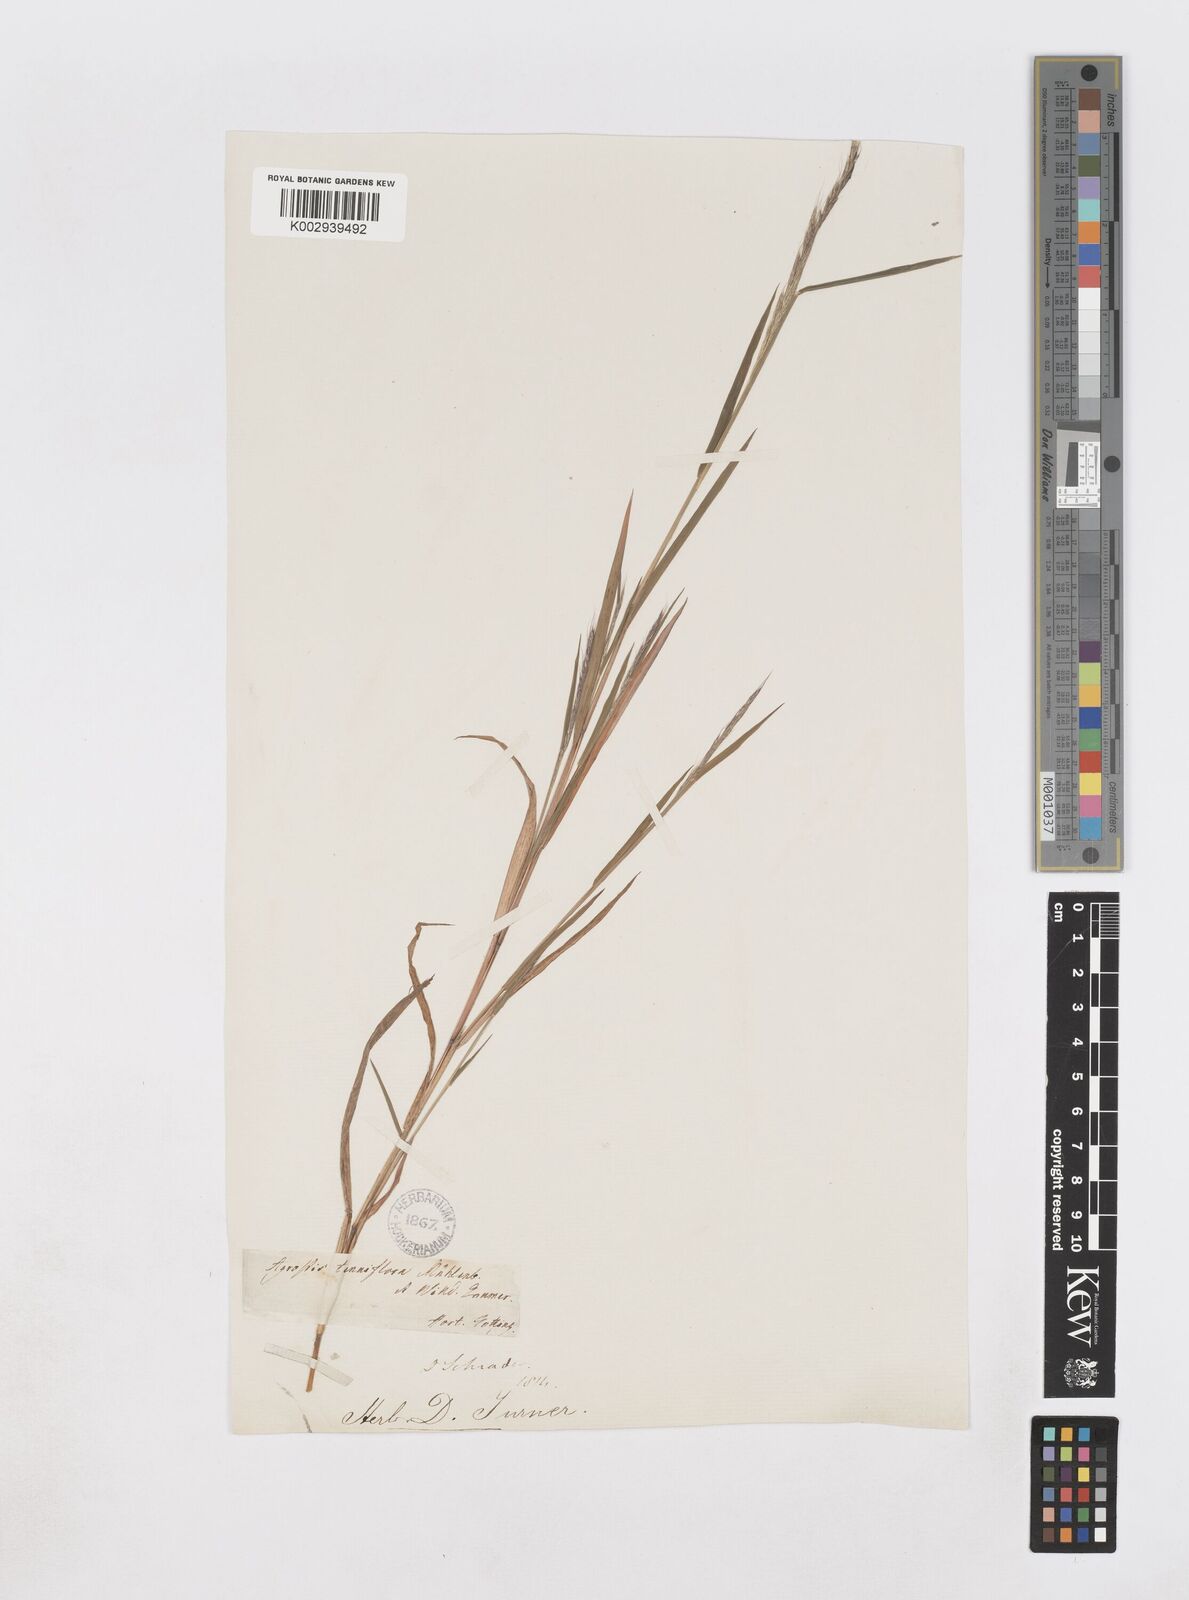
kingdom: Plantae
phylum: Tracheophyta
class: Liliopsida
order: Poales
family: Poaceae
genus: Muhlenbergia
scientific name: Muhlenbergia sylvatica
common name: Woodland muhly
